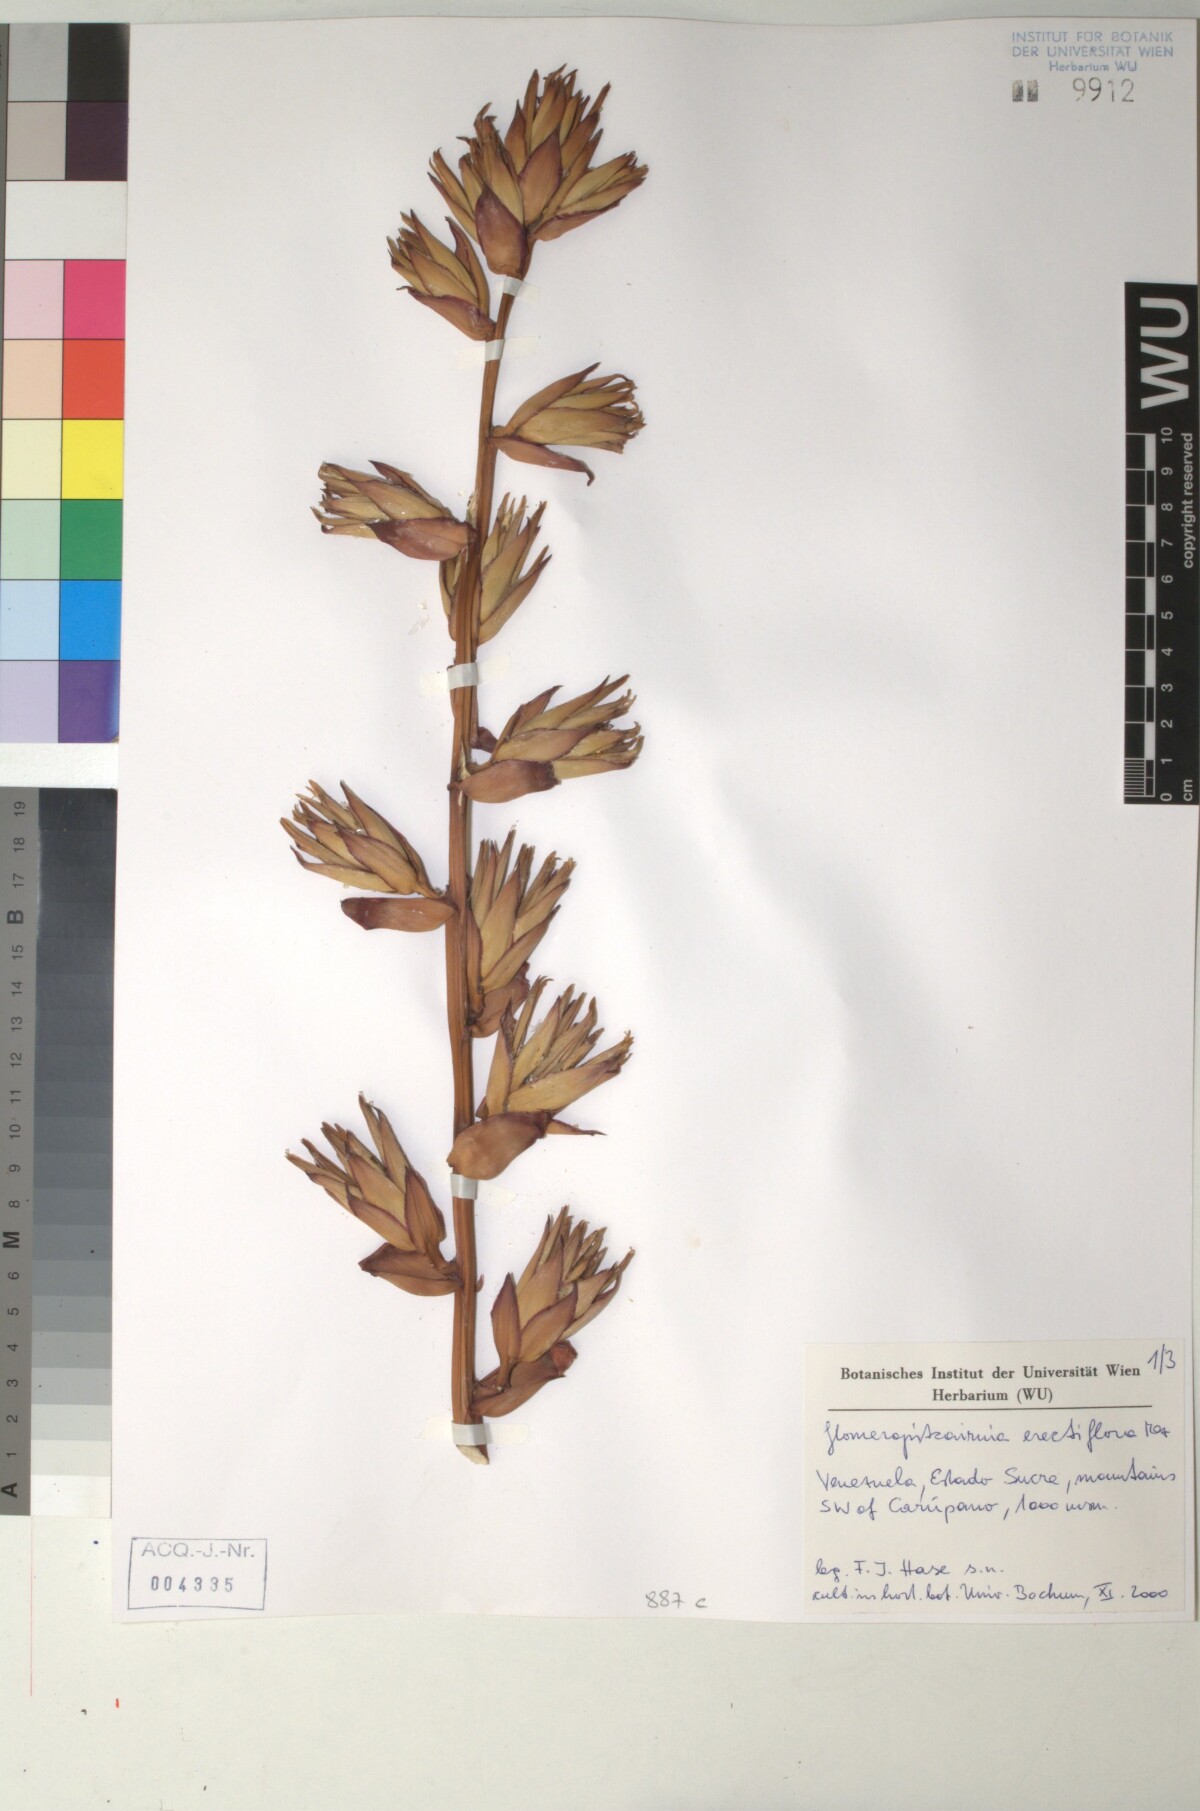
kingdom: Plantae
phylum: Tracheophyta
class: Liliopsida
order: Poales
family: Bromeliaceae
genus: Glomeropitcairnia
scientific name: Glomeropitcairnia erectiflora
